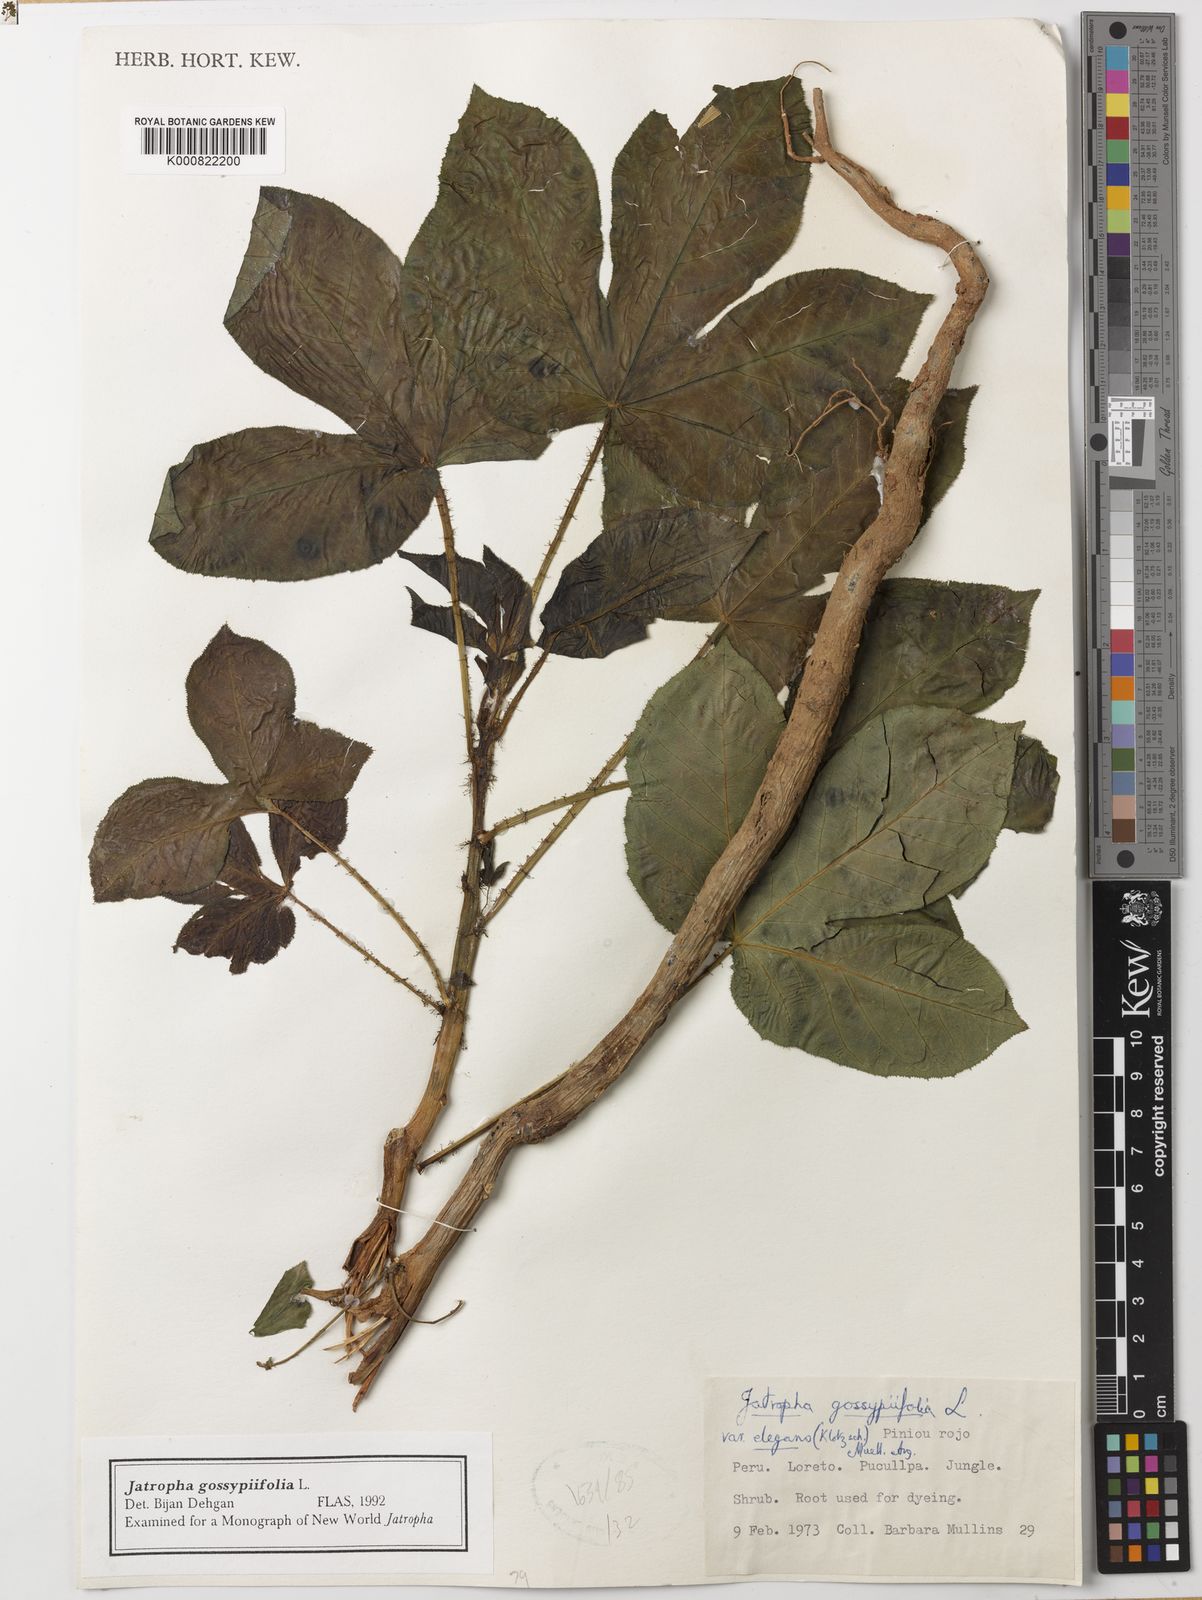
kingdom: Plantae
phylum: Tracheophyta
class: Magnoliopsida
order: Malpighiales
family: Euphorbiaceae
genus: Jatropha
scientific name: Jatropha gossypiifolia
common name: Bellyache bush
